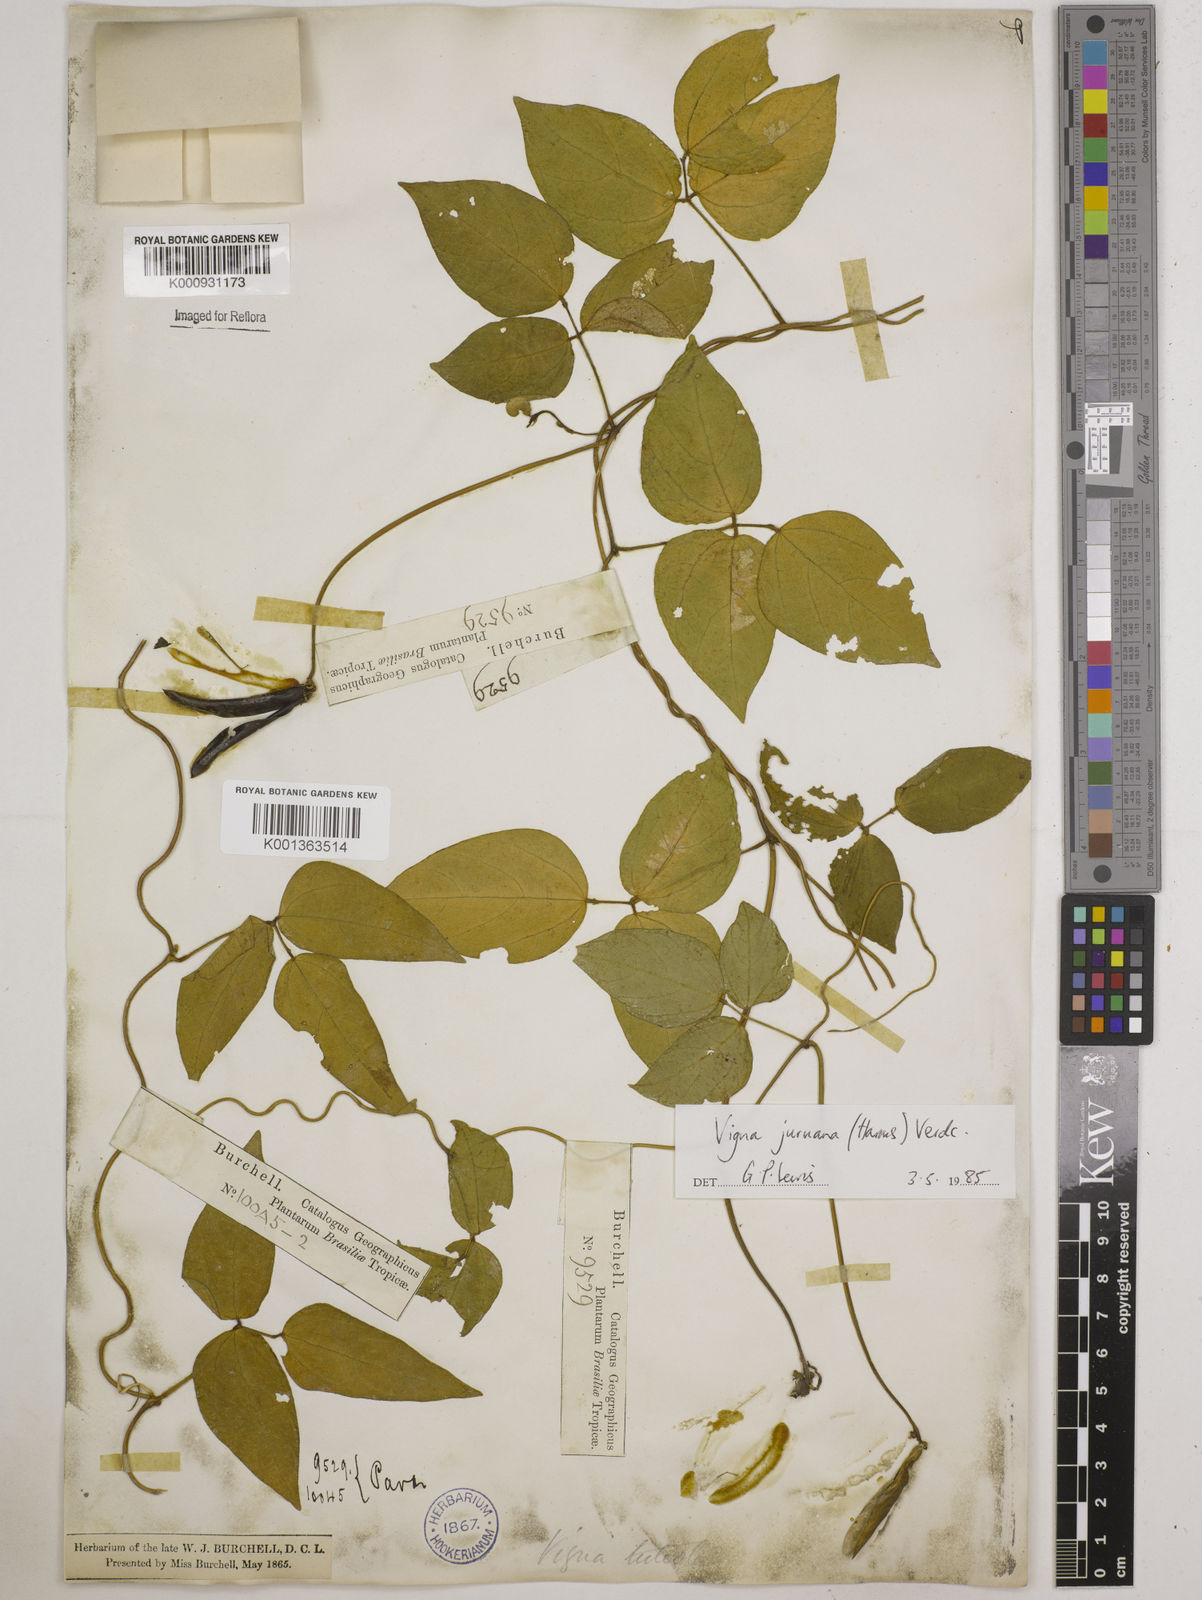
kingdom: Plantae
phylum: Tracheophyta
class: Magnoliopsida
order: Fabales
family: Fabaceae
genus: Vigna
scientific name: Vigna juruana
